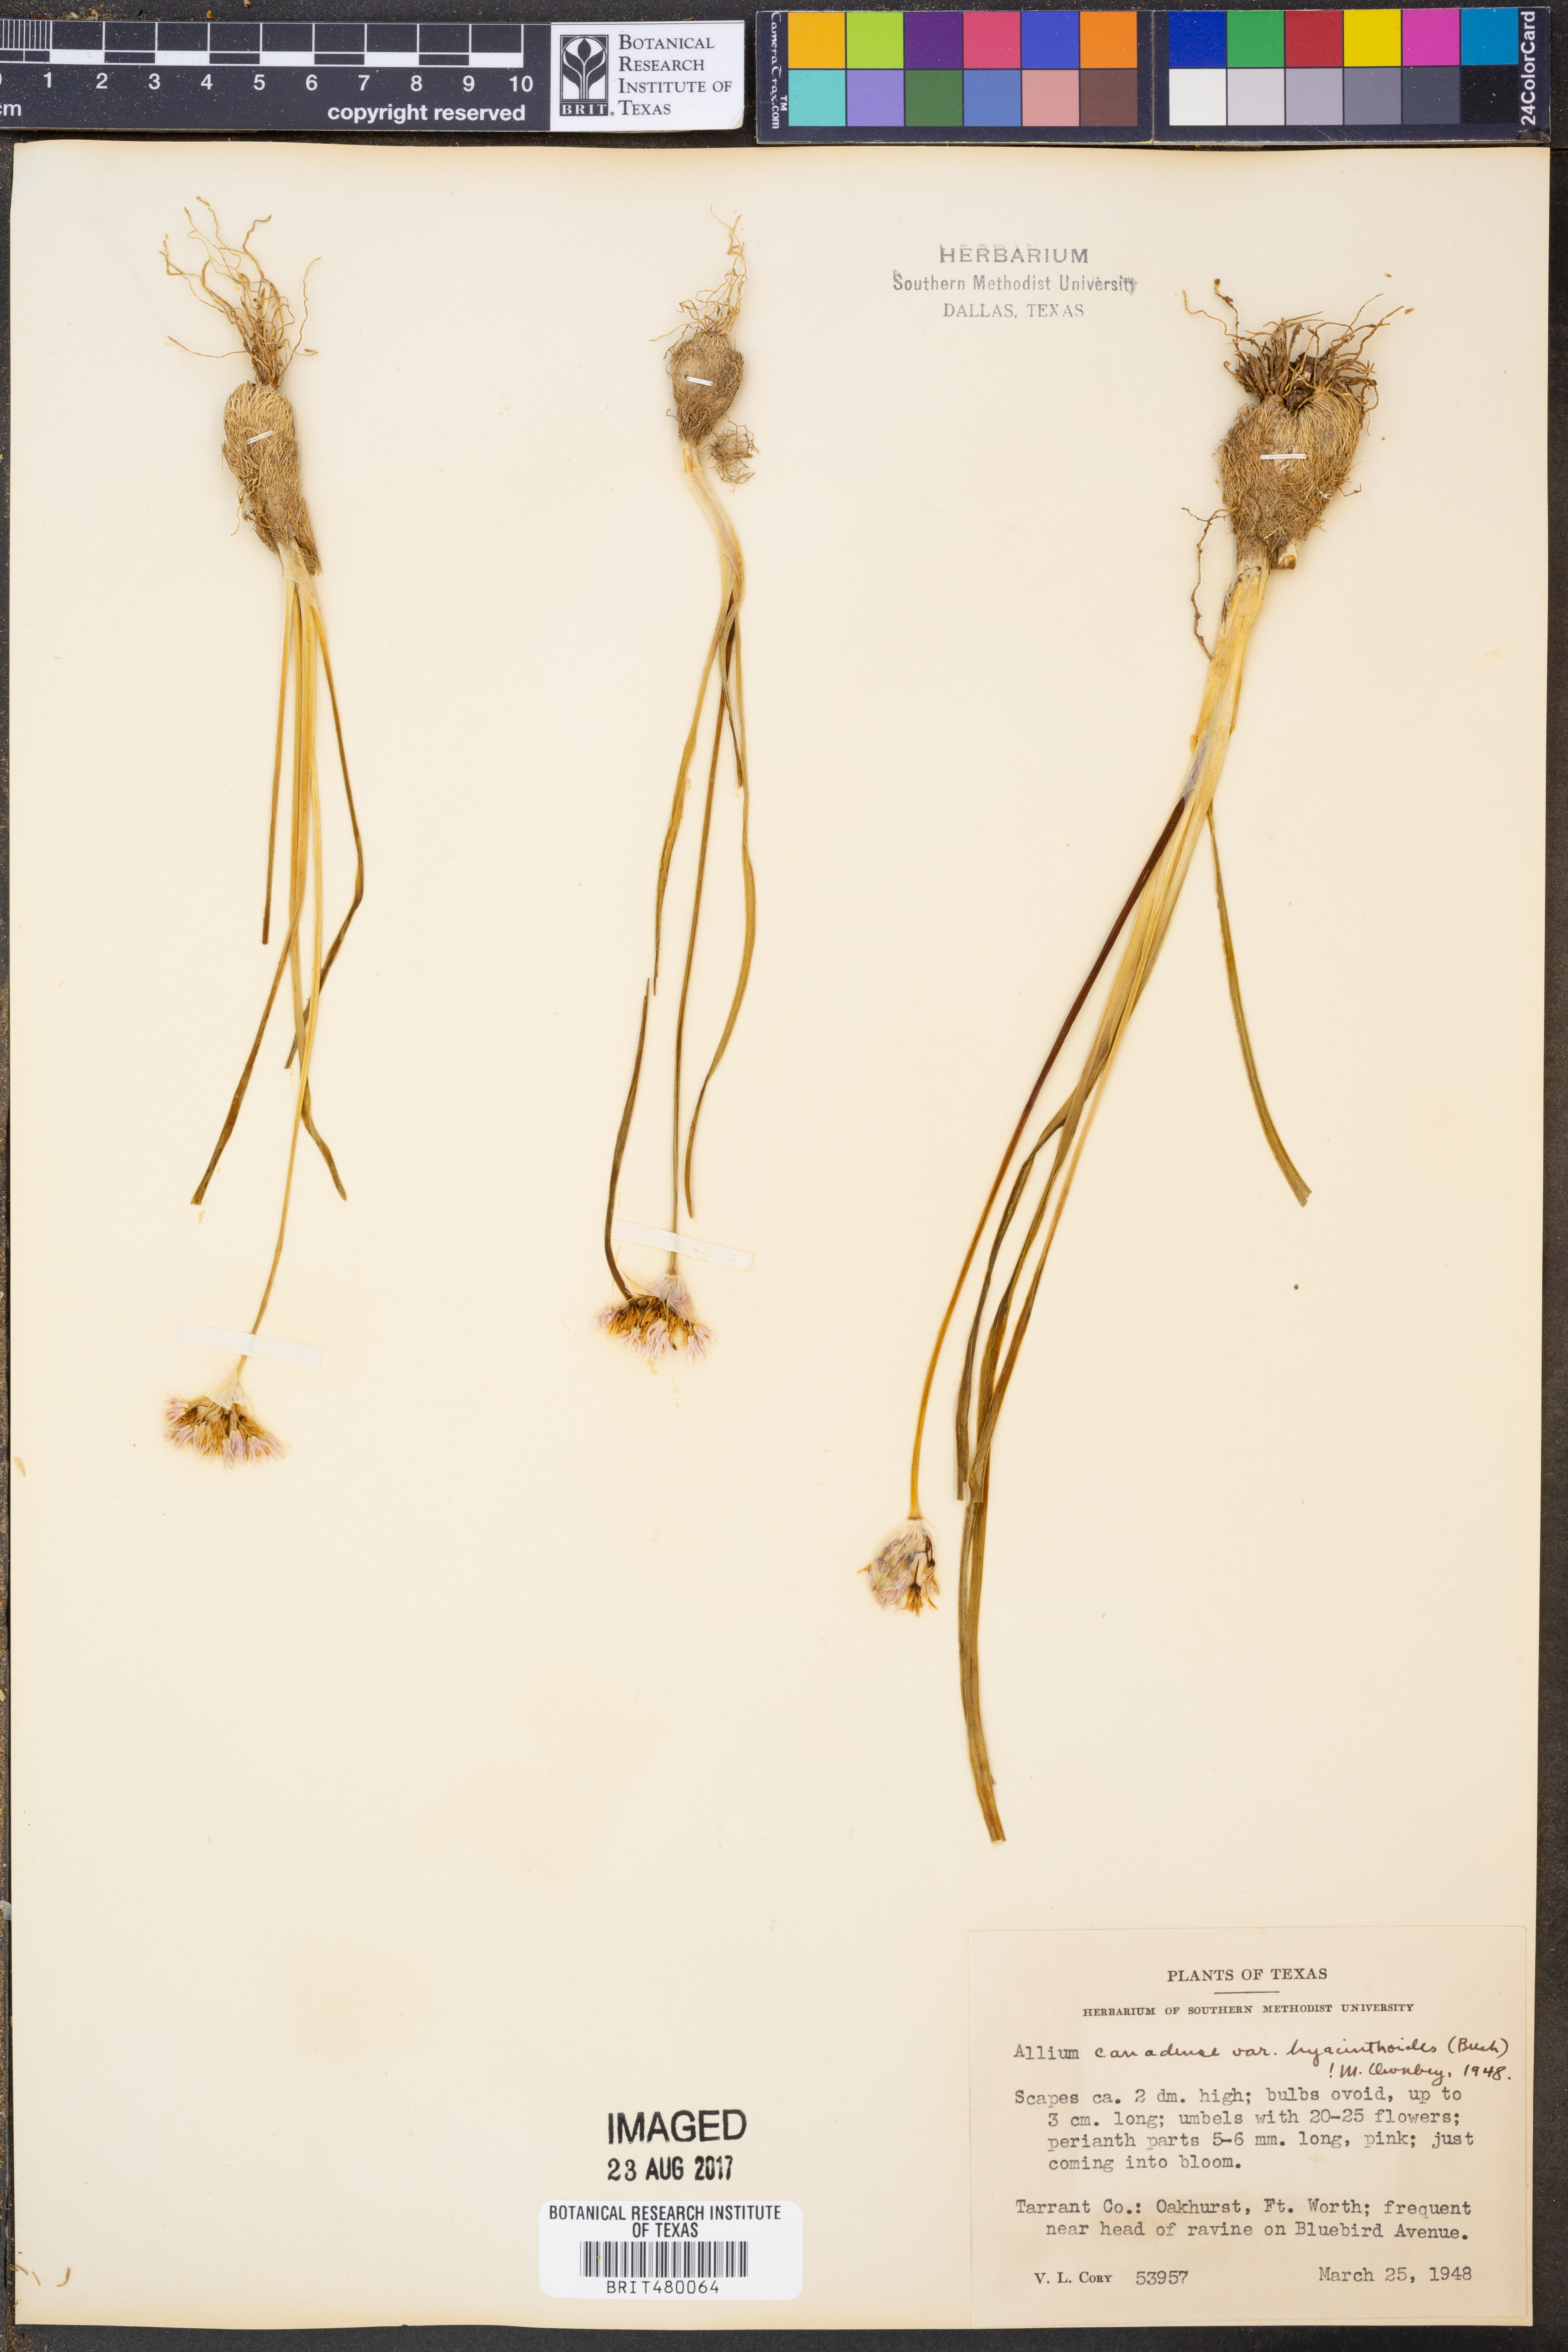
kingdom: Plantae
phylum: Tracheophyta
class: Liliopsida
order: Asparagales
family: Amaryllidaceae
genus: Allium
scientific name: Allium canadense
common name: Meadow garlic
